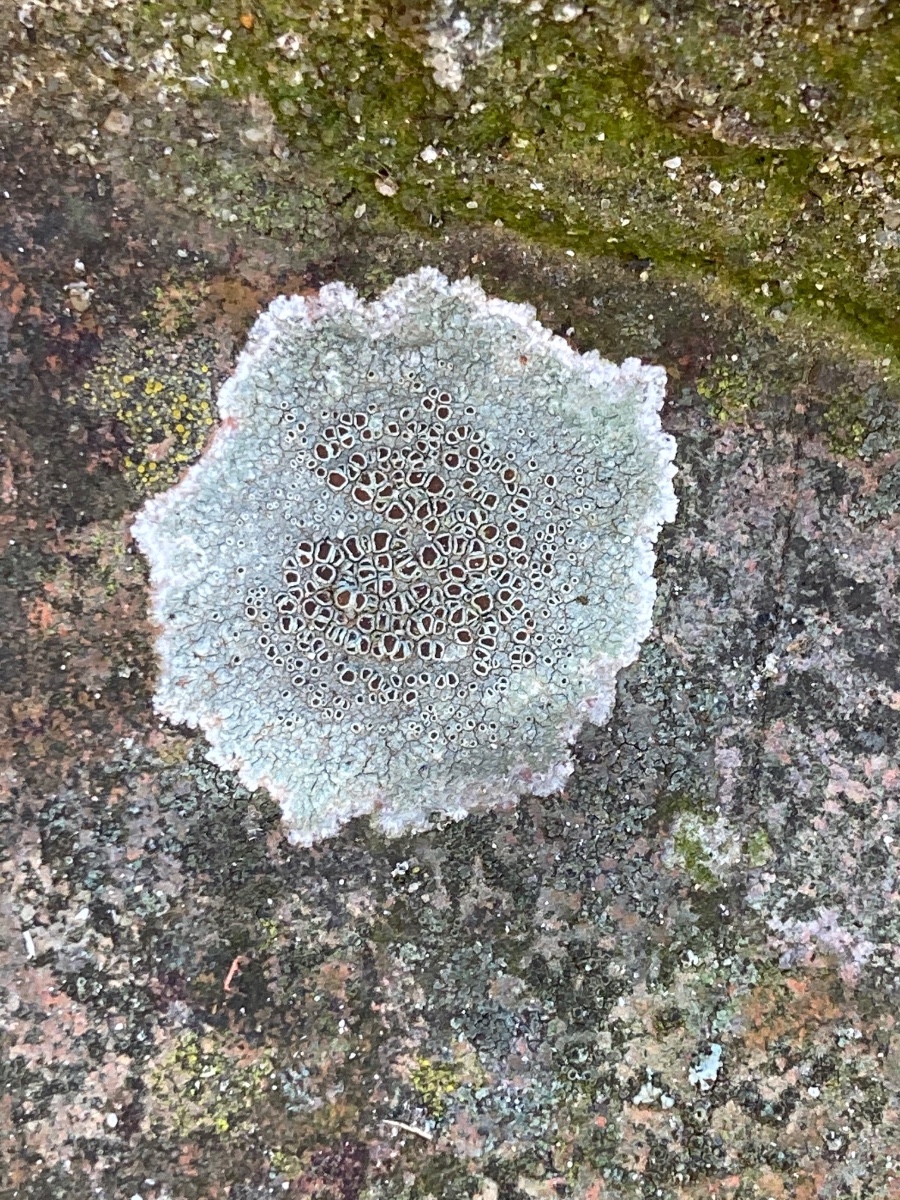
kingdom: Fungi
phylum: Ascomycota
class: Lecanoromycetes
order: Lecanorales
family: Lecanoraceae
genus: Lecanora
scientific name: Lecanora campestris
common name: mur-kantskivelav
